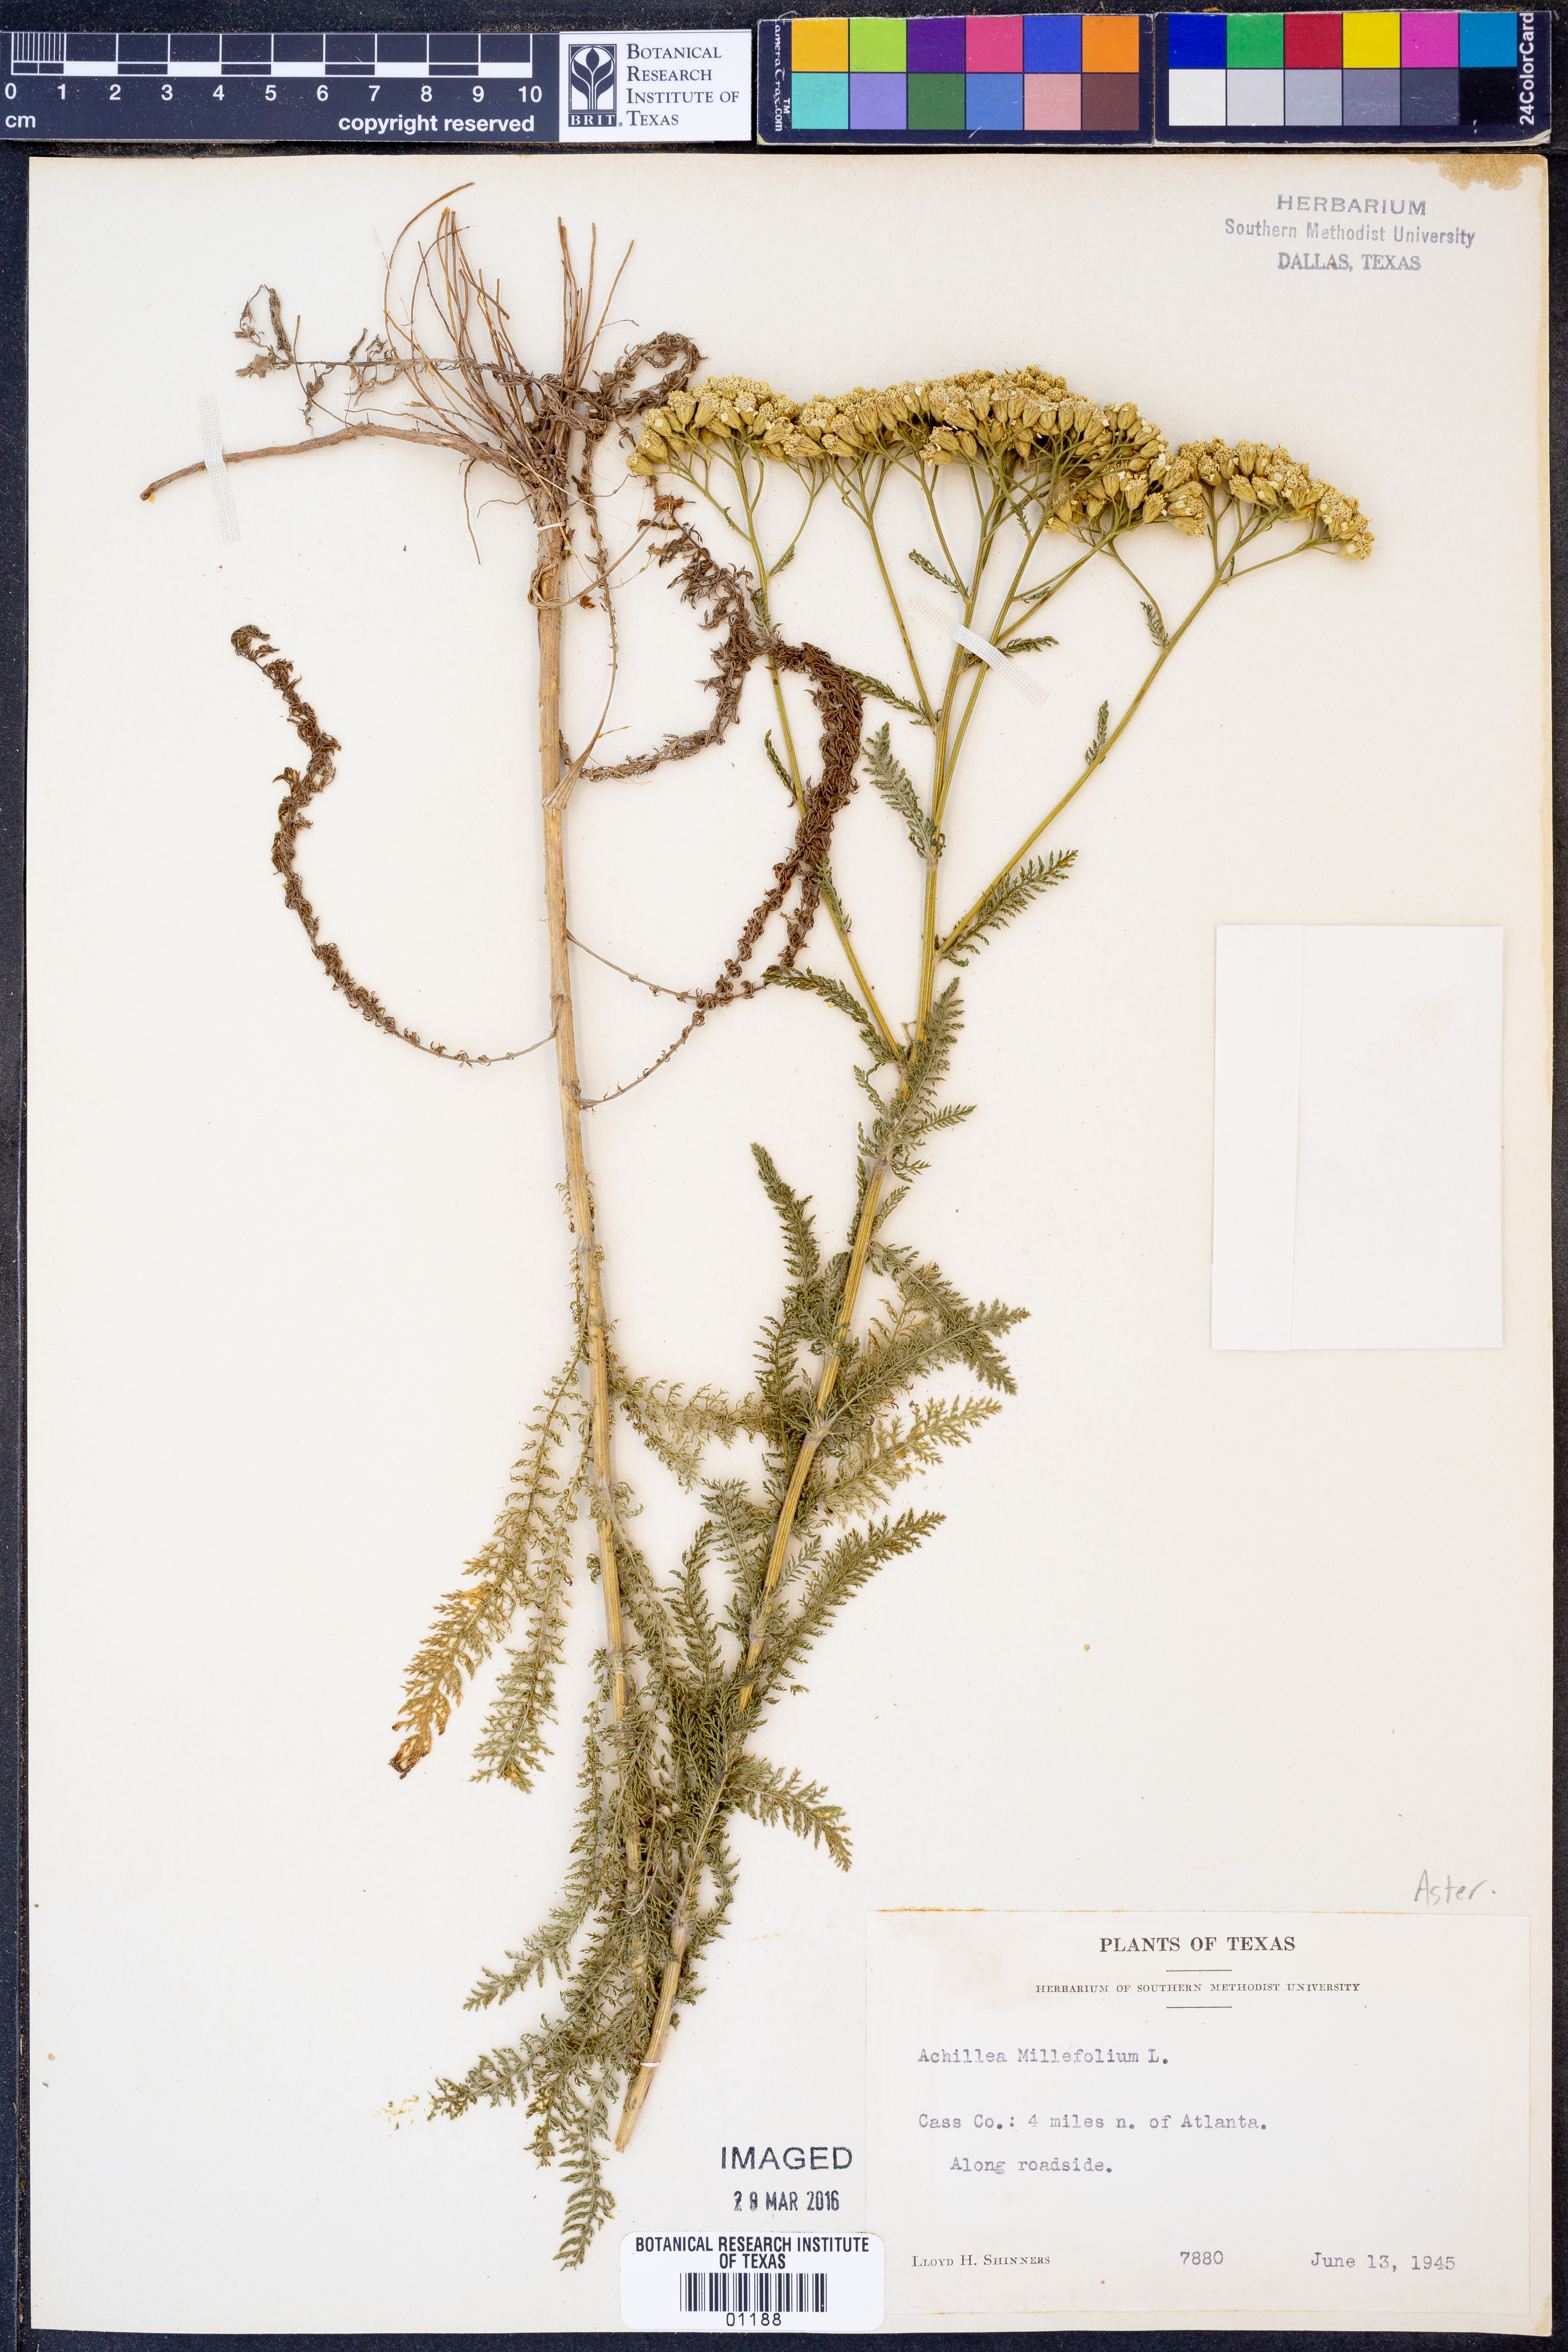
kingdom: Plantae
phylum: Tracheophyta
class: Magnoliopsida
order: Asterales
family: Asteraceae
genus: Achillea
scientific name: Achillea millefolium
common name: Yarrow
